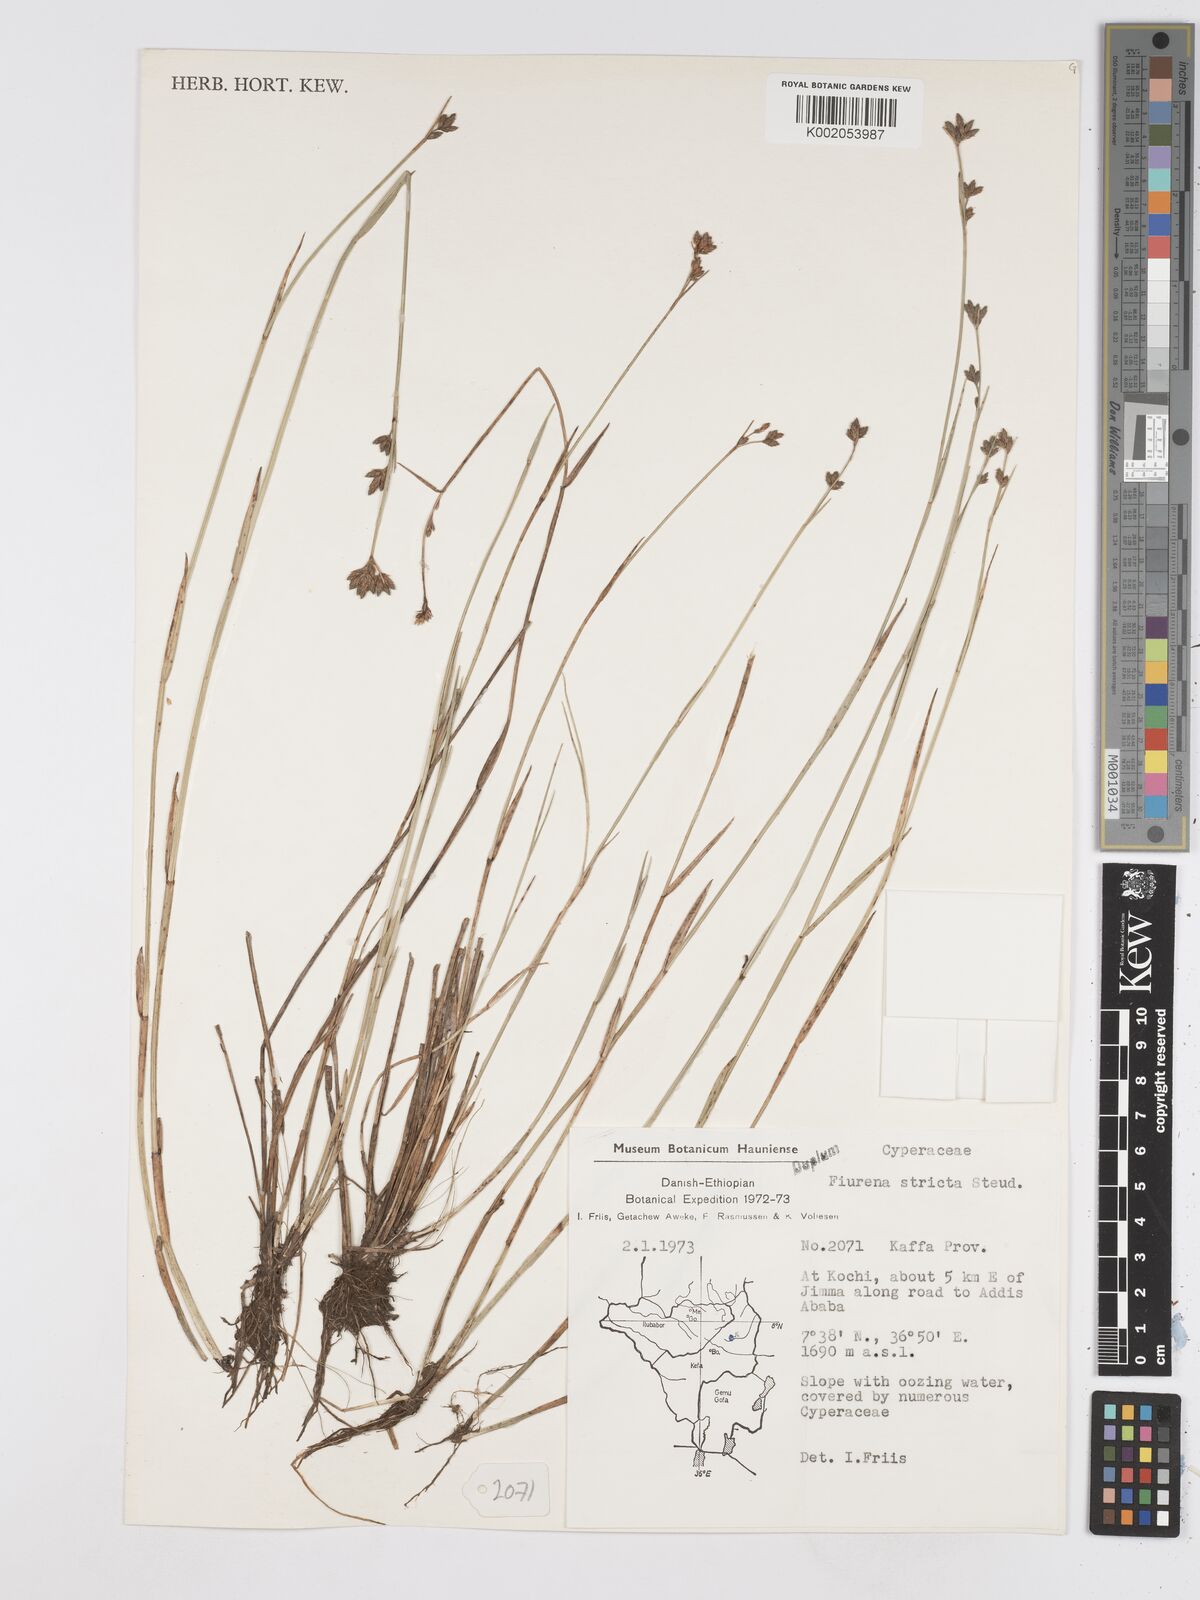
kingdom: Plantae
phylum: Tracheophyta
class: Liliopsida
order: Poales
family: Cyperaceae
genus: Fuirena
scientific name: Fuirena stricta
